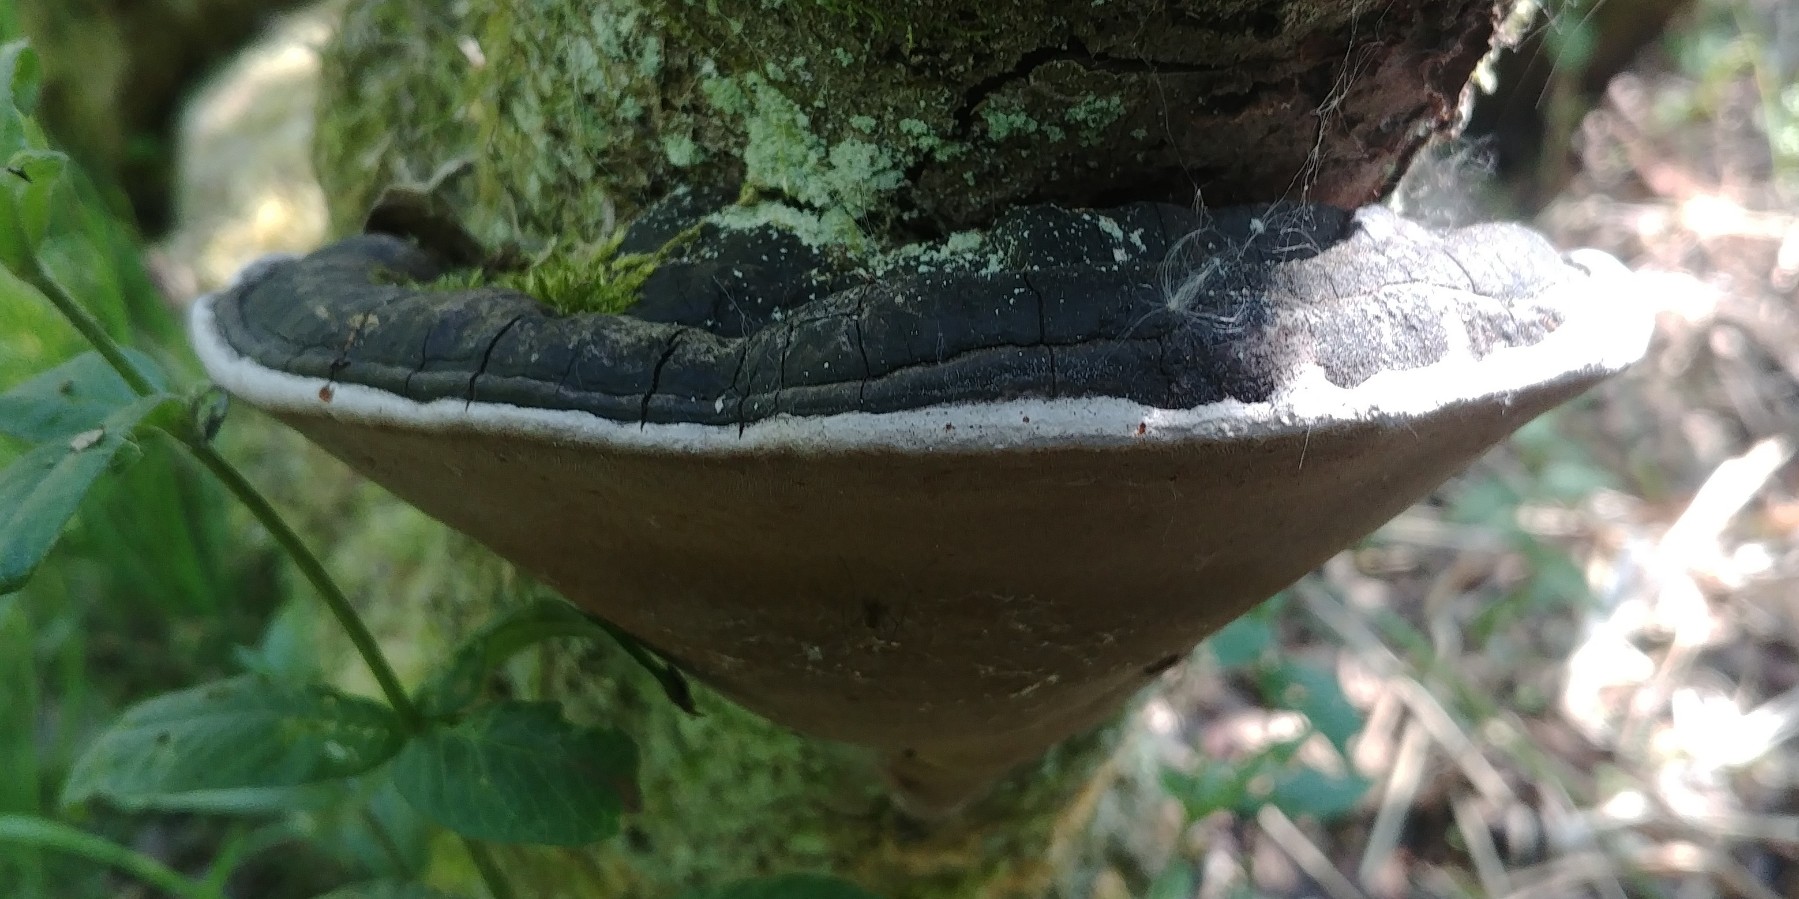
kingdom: Fungi
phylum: Basidiomycota
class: Agaricomycetes
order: Hymenochaetales
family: Hymenochaetaceae
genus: Phellinus
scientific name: Phellinus igniarius
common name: almindelig ildporesvamp
